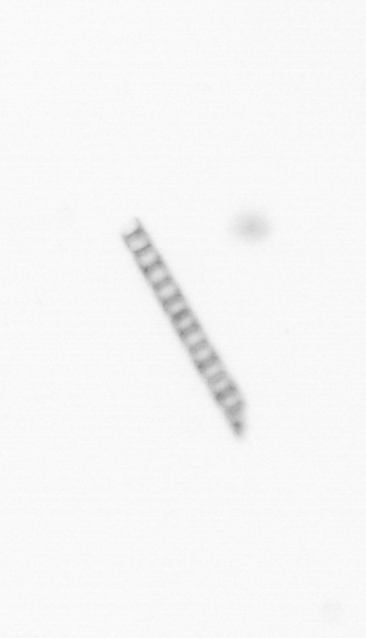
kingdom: Chromista
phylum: Ochrophyta
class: Bacillariophyceae
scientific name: Bacillariophyceae
